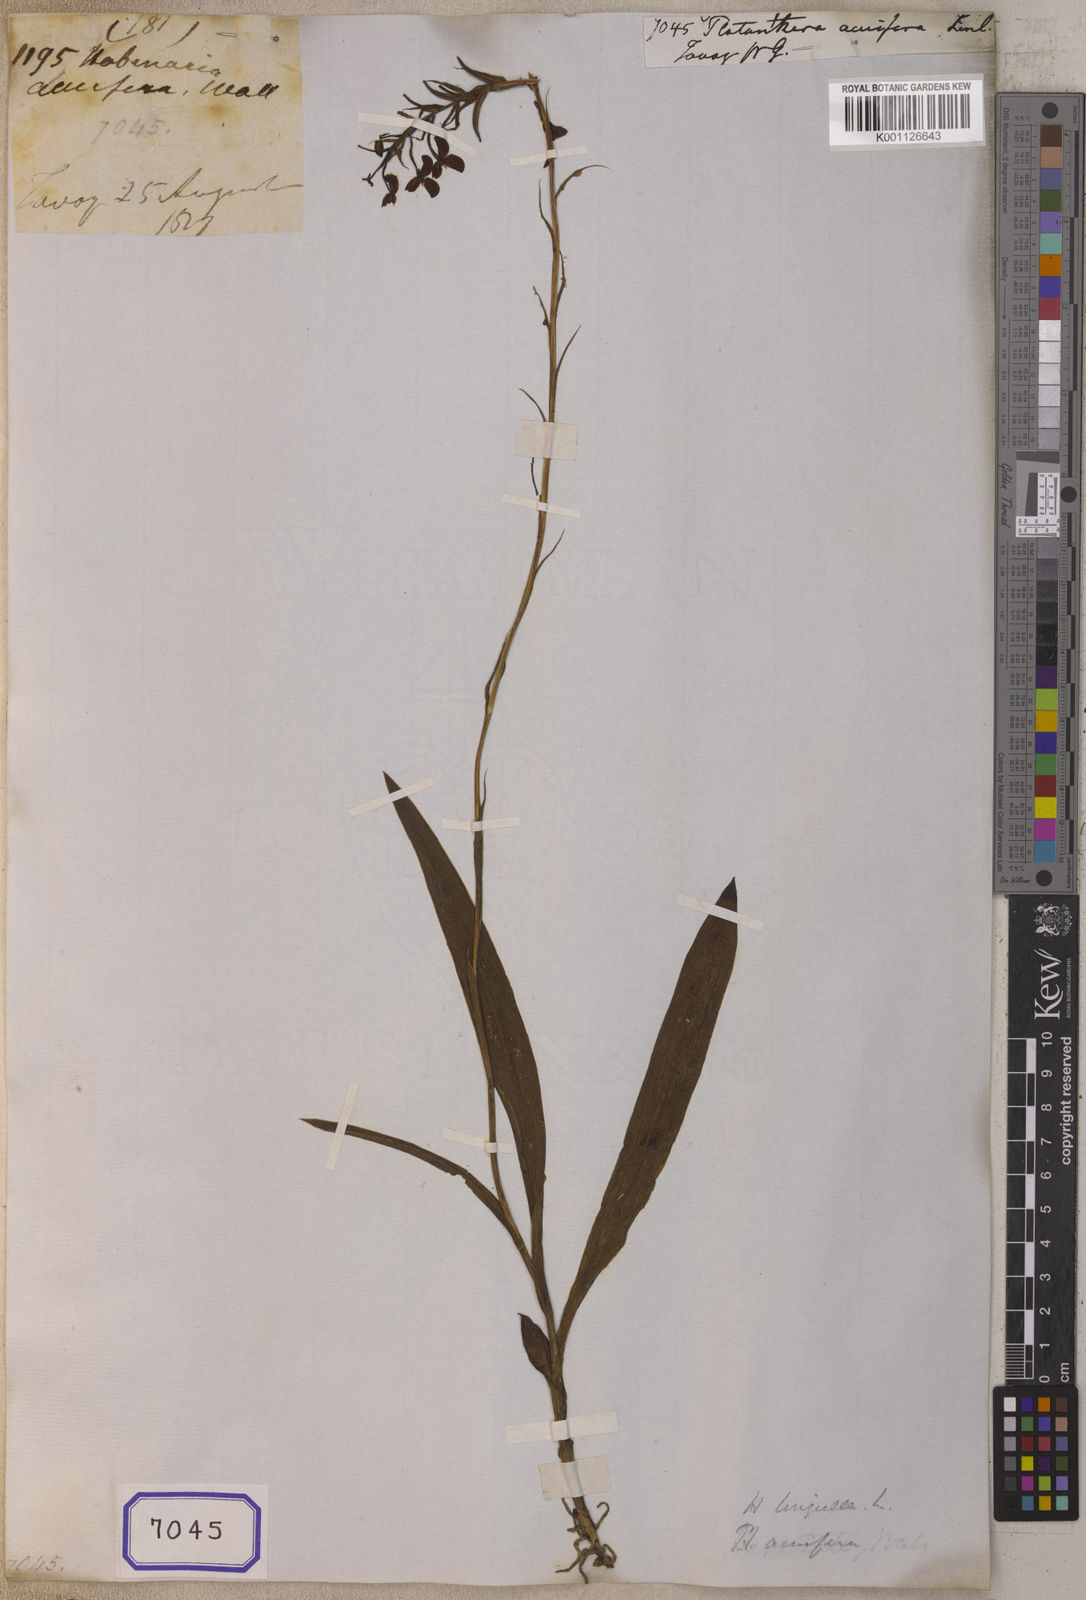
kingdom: Plantae
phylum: Tracheophyta
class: Liliopsida
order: Asparagales
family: Orchidaceae
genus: Platanthera
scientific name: Platanthera
